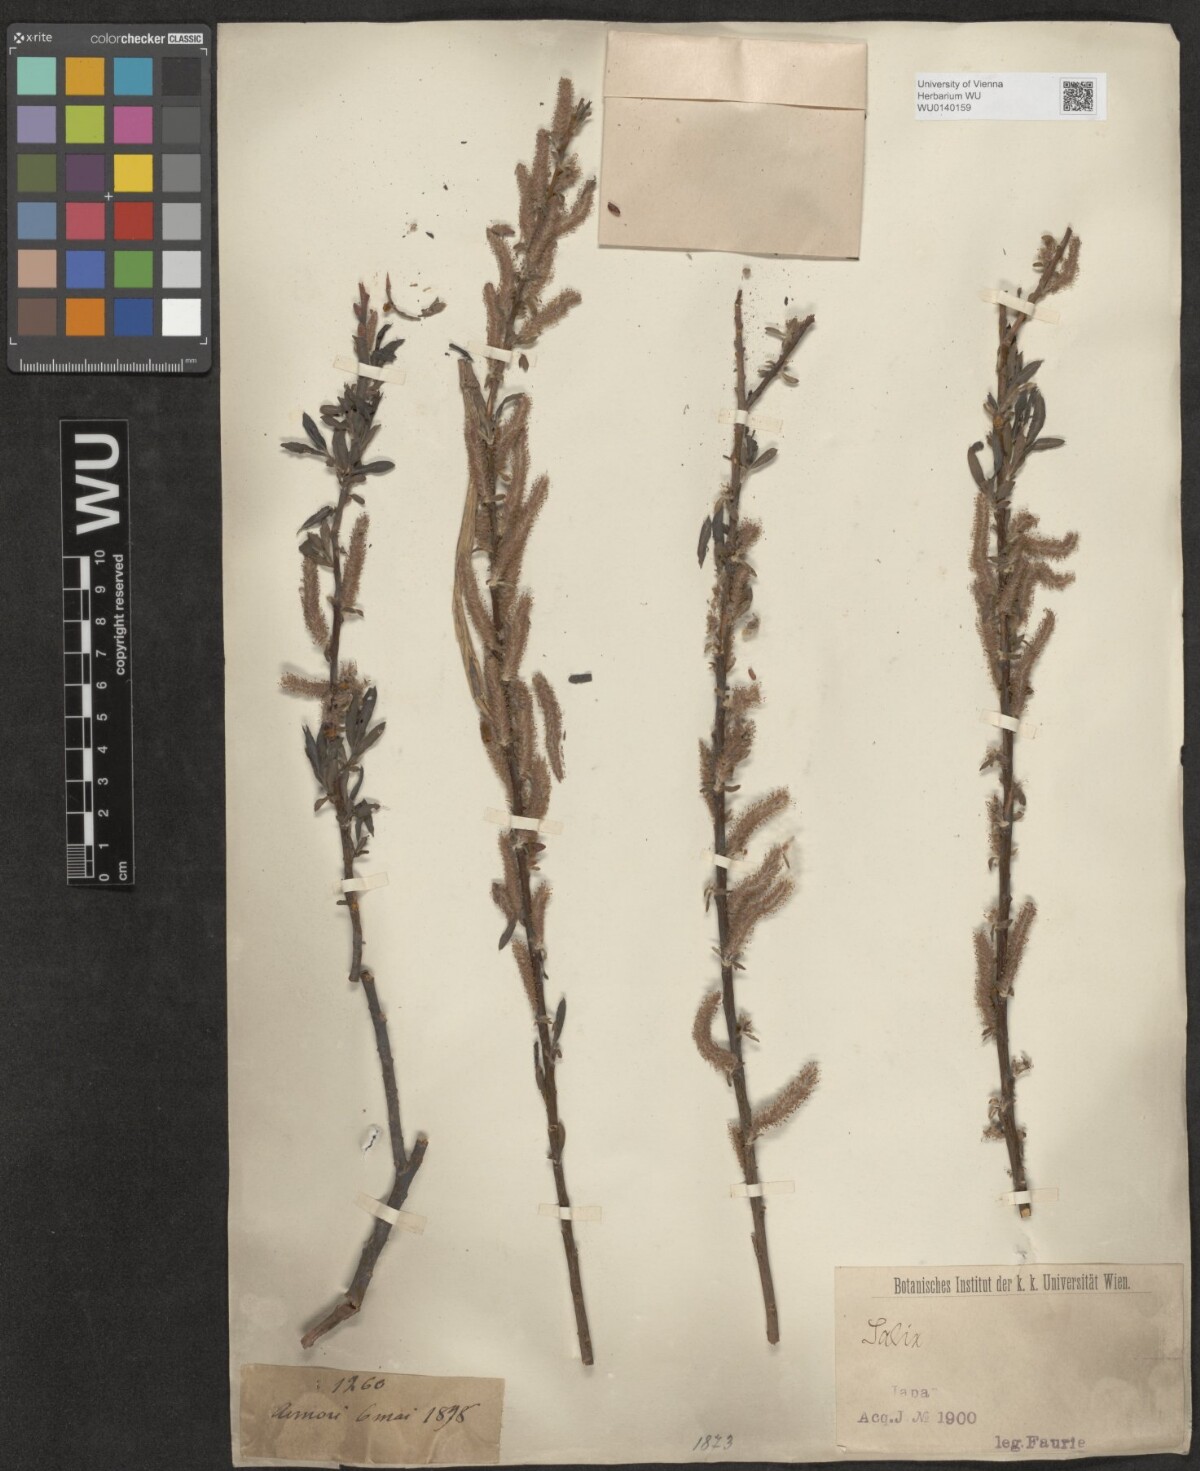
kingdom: Plantae
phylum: Tracheophyta
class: Magnoliopsida
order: Malpighiales
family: Salicaceae
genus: Salix
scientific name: Salix
